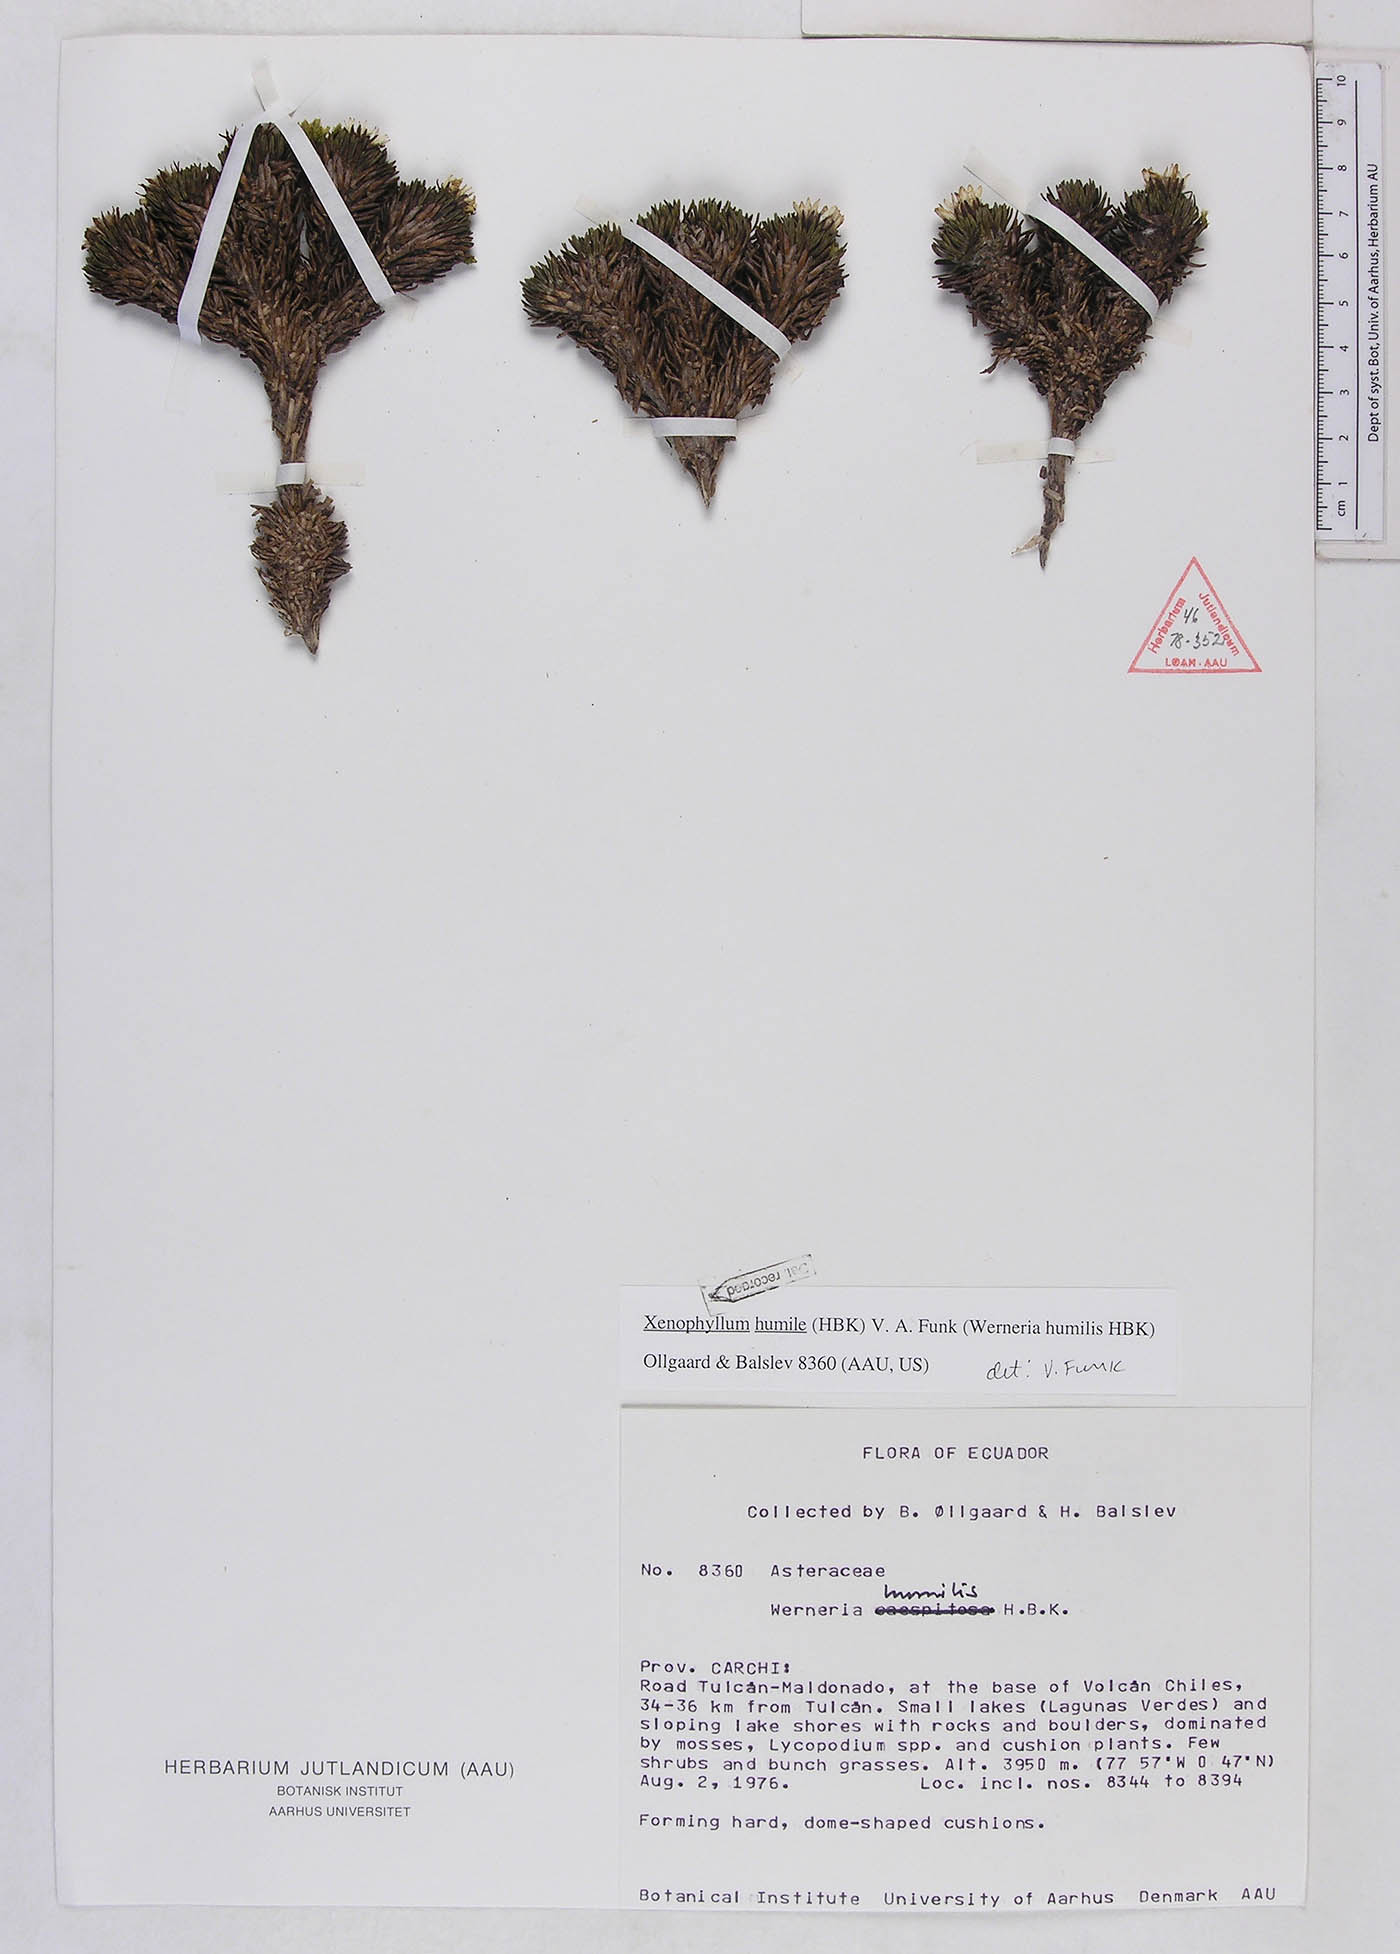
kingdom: Plantae
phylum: Tracheophyta
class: Magnoliopsida
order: Asterales
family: Asteraceae
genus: Werneria
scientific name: Werneria humilis
